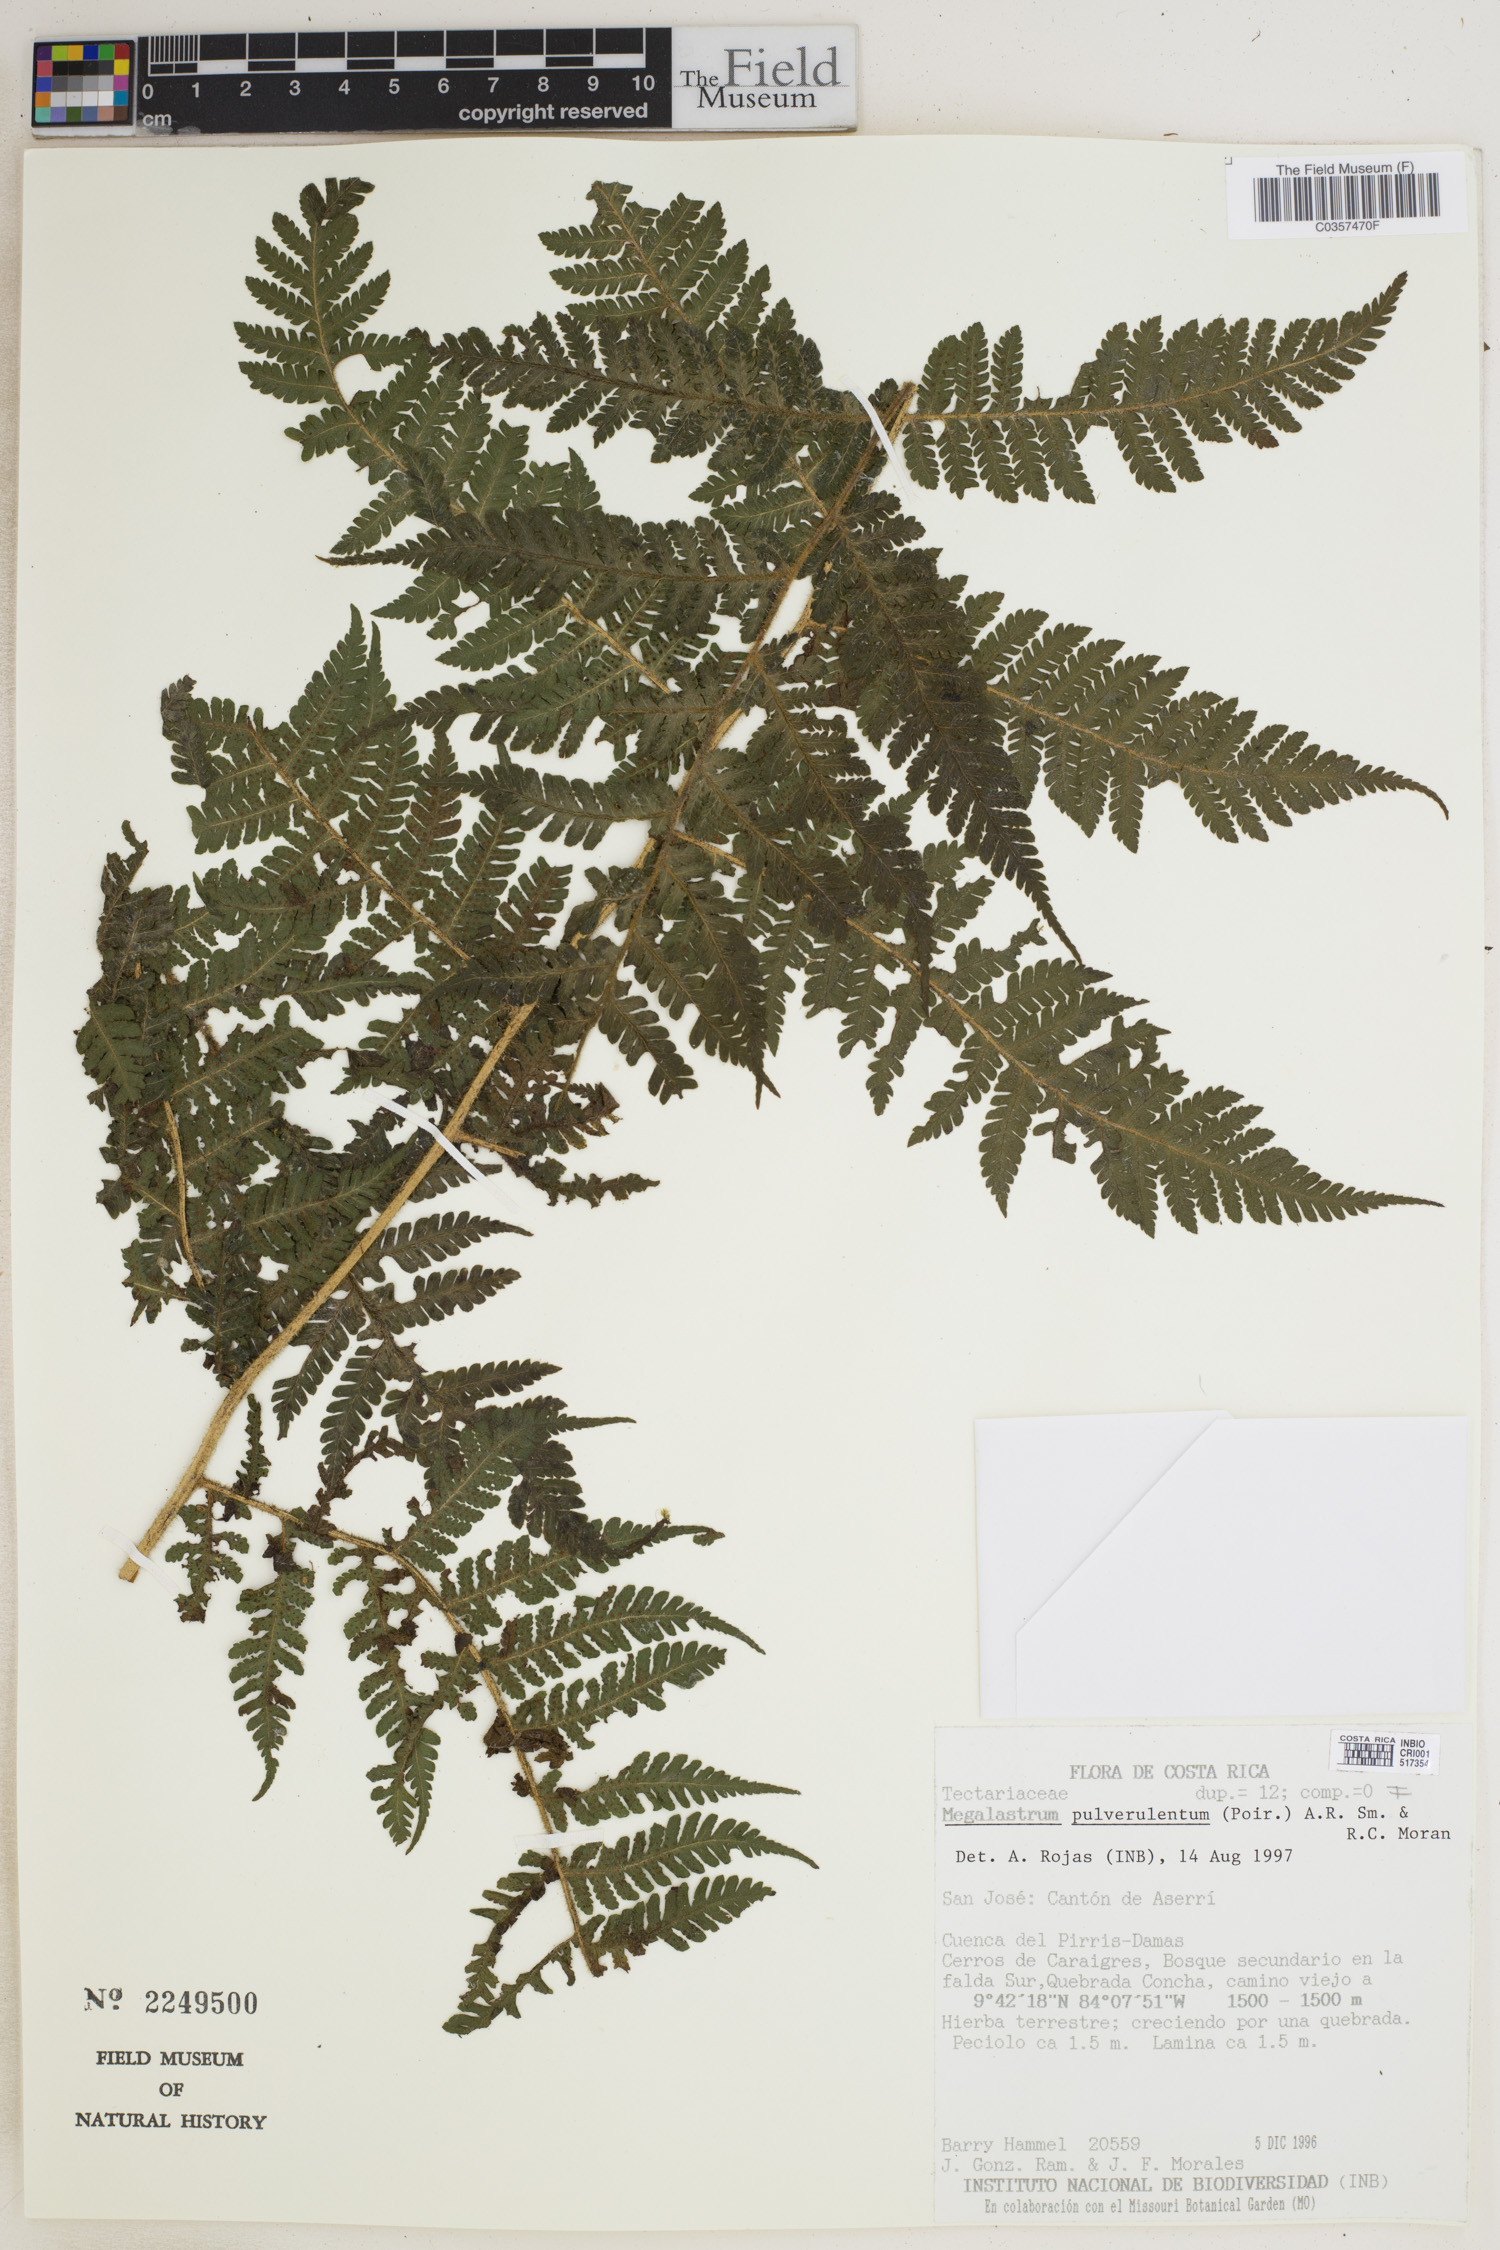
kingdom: Plantae
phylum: Tracheophyta
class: Polypodiopsida
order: Polypodiales
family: Dryopteridaceae
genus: Megalastrum
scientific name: Megalastrum pulverulentum
